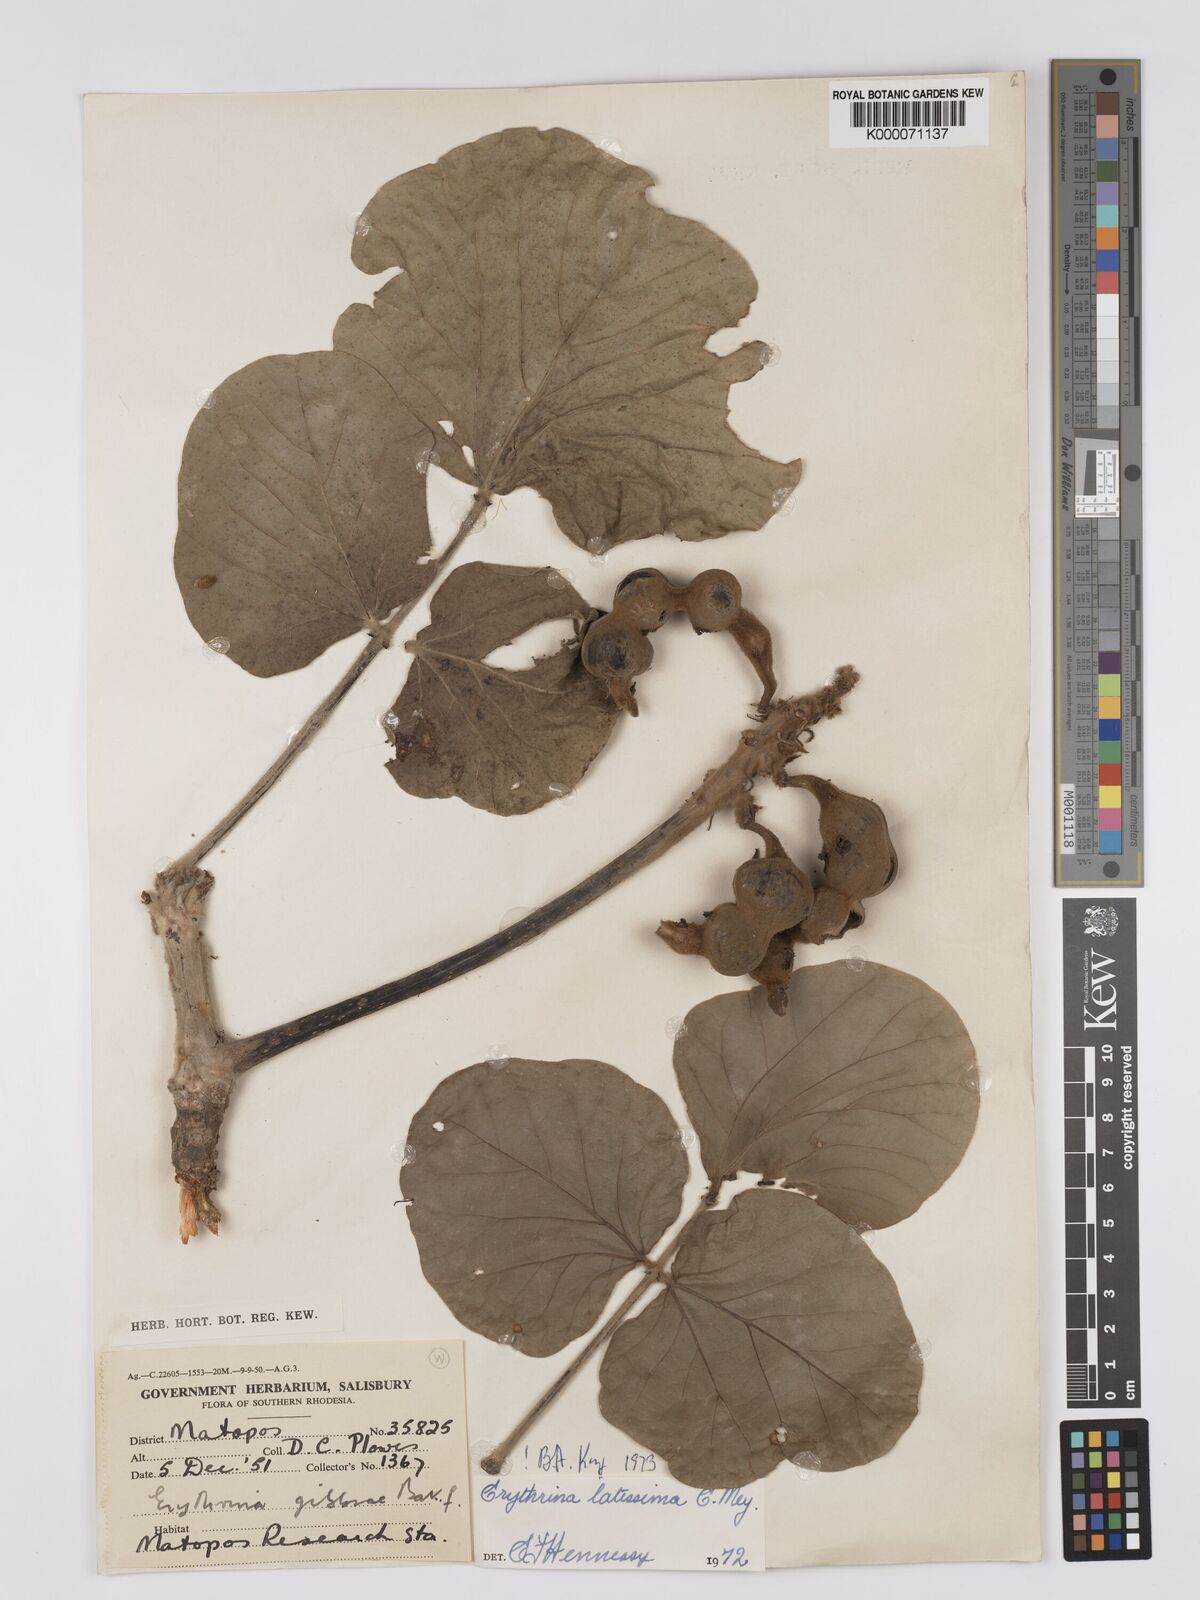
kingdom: Plantae
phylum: Tracheophyta
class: Magnoliopsida
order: Fabales
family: Fabaceae
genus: Erythrina
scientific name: Erythrina latissima
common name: Broad-leaved coral tree
